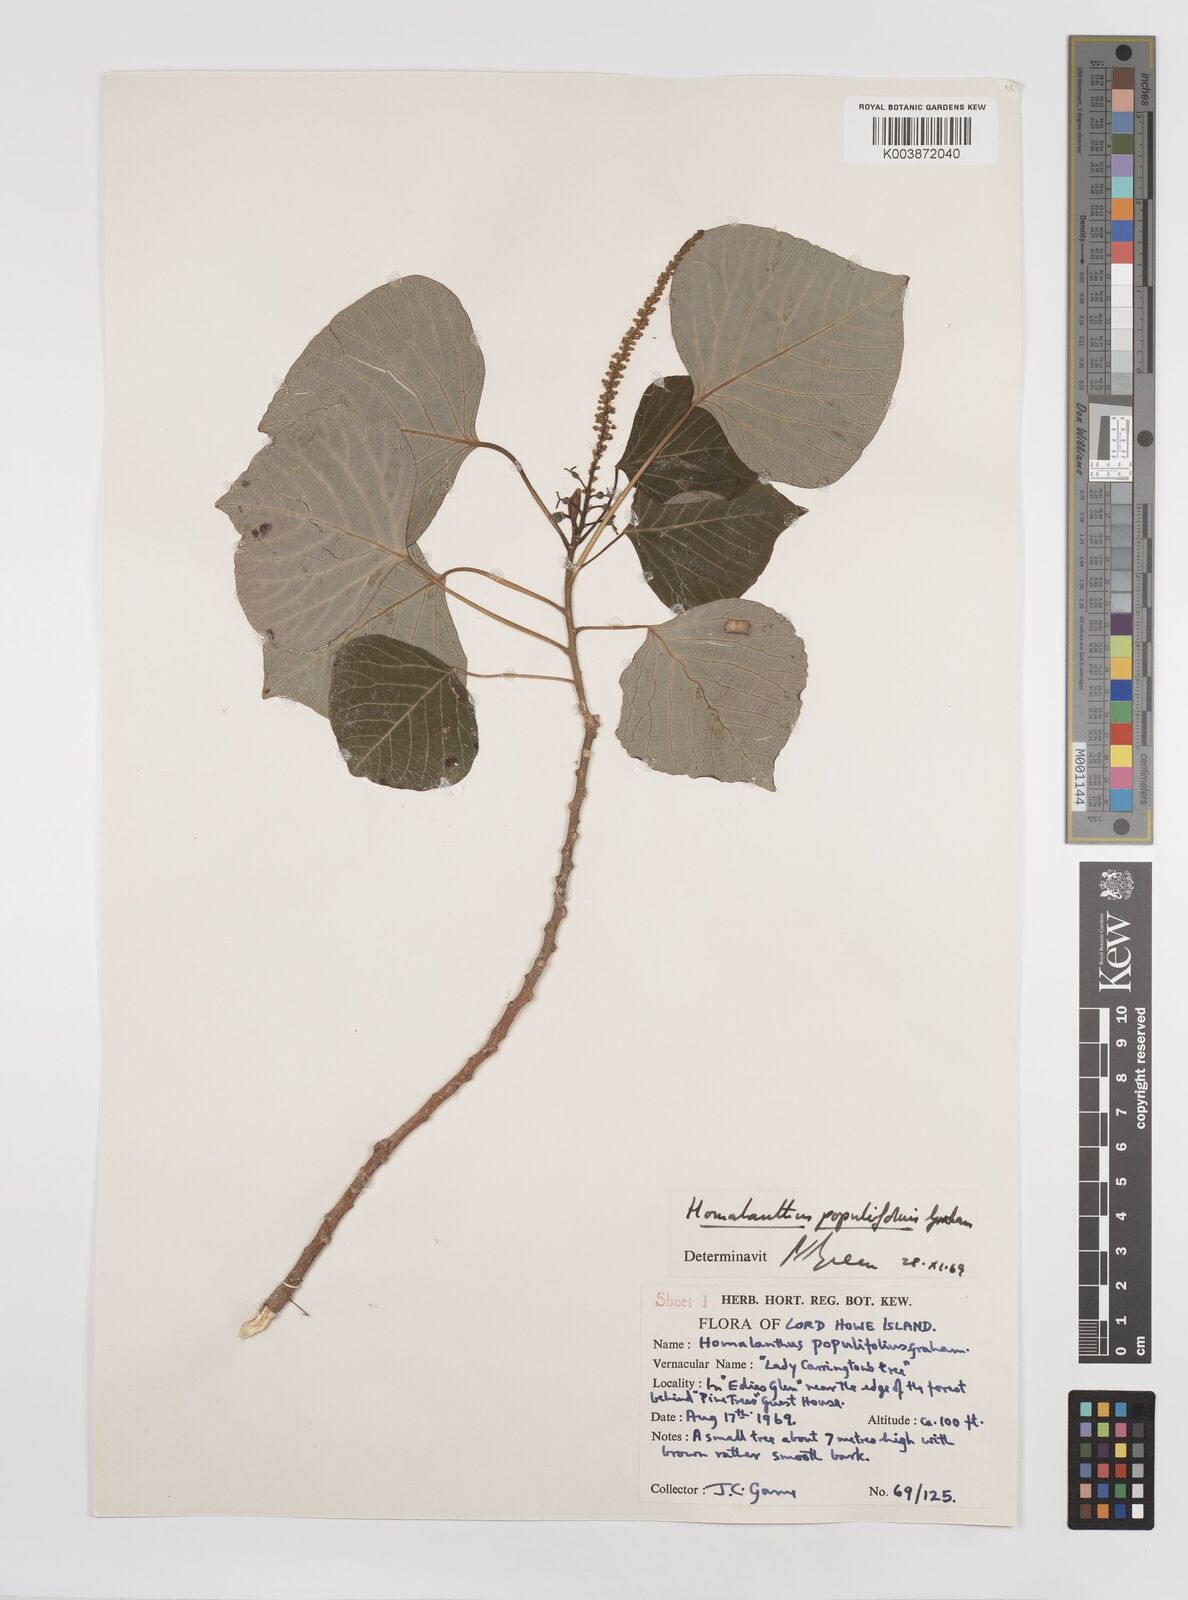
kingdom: Plantae
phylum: Tracheophyta
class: Magnoliopsida
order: Malpighiales
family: Euphorbiaceae
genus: Homalanthus
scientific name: Homalanthus populifolius
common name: Queensland poplar
